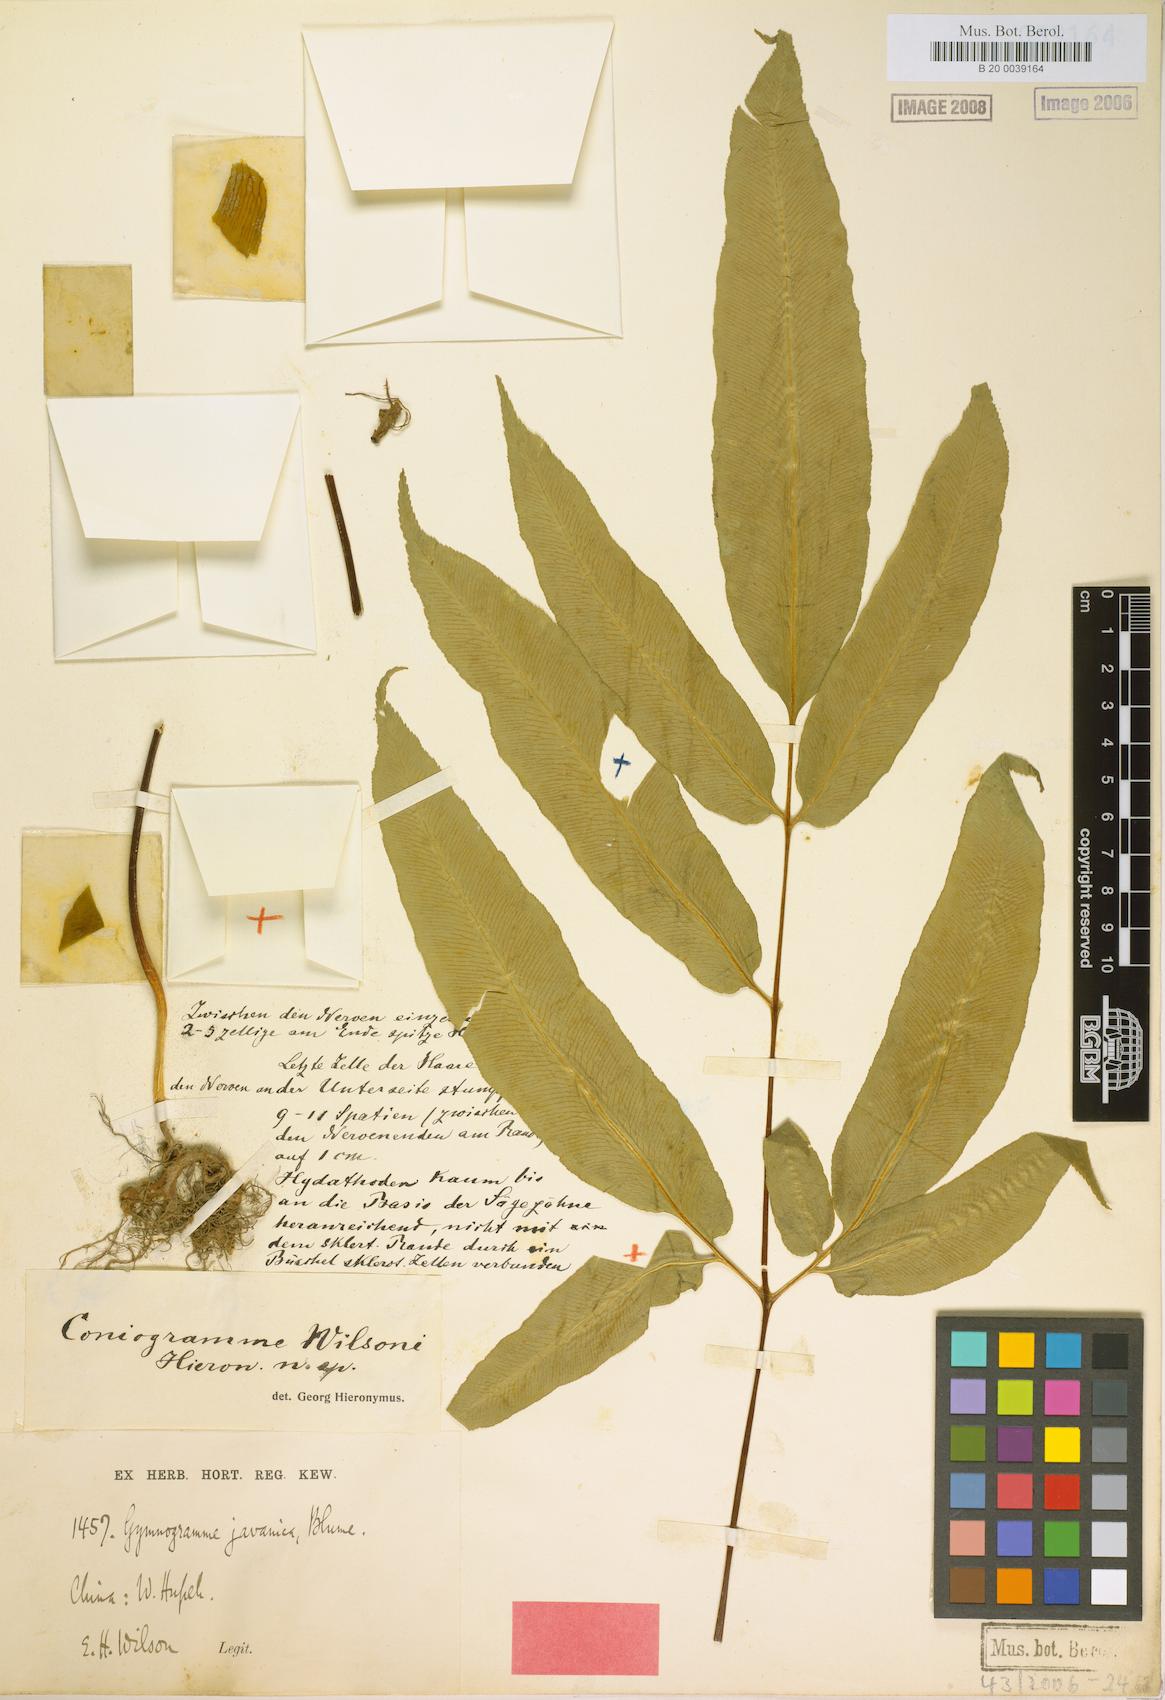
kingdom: Plantae
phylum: Tracheophyta
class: Polypodiopsida
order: Polypodiales
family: Pteridaceae
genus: Coniogramme
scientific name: Coniogramme wilsonii
